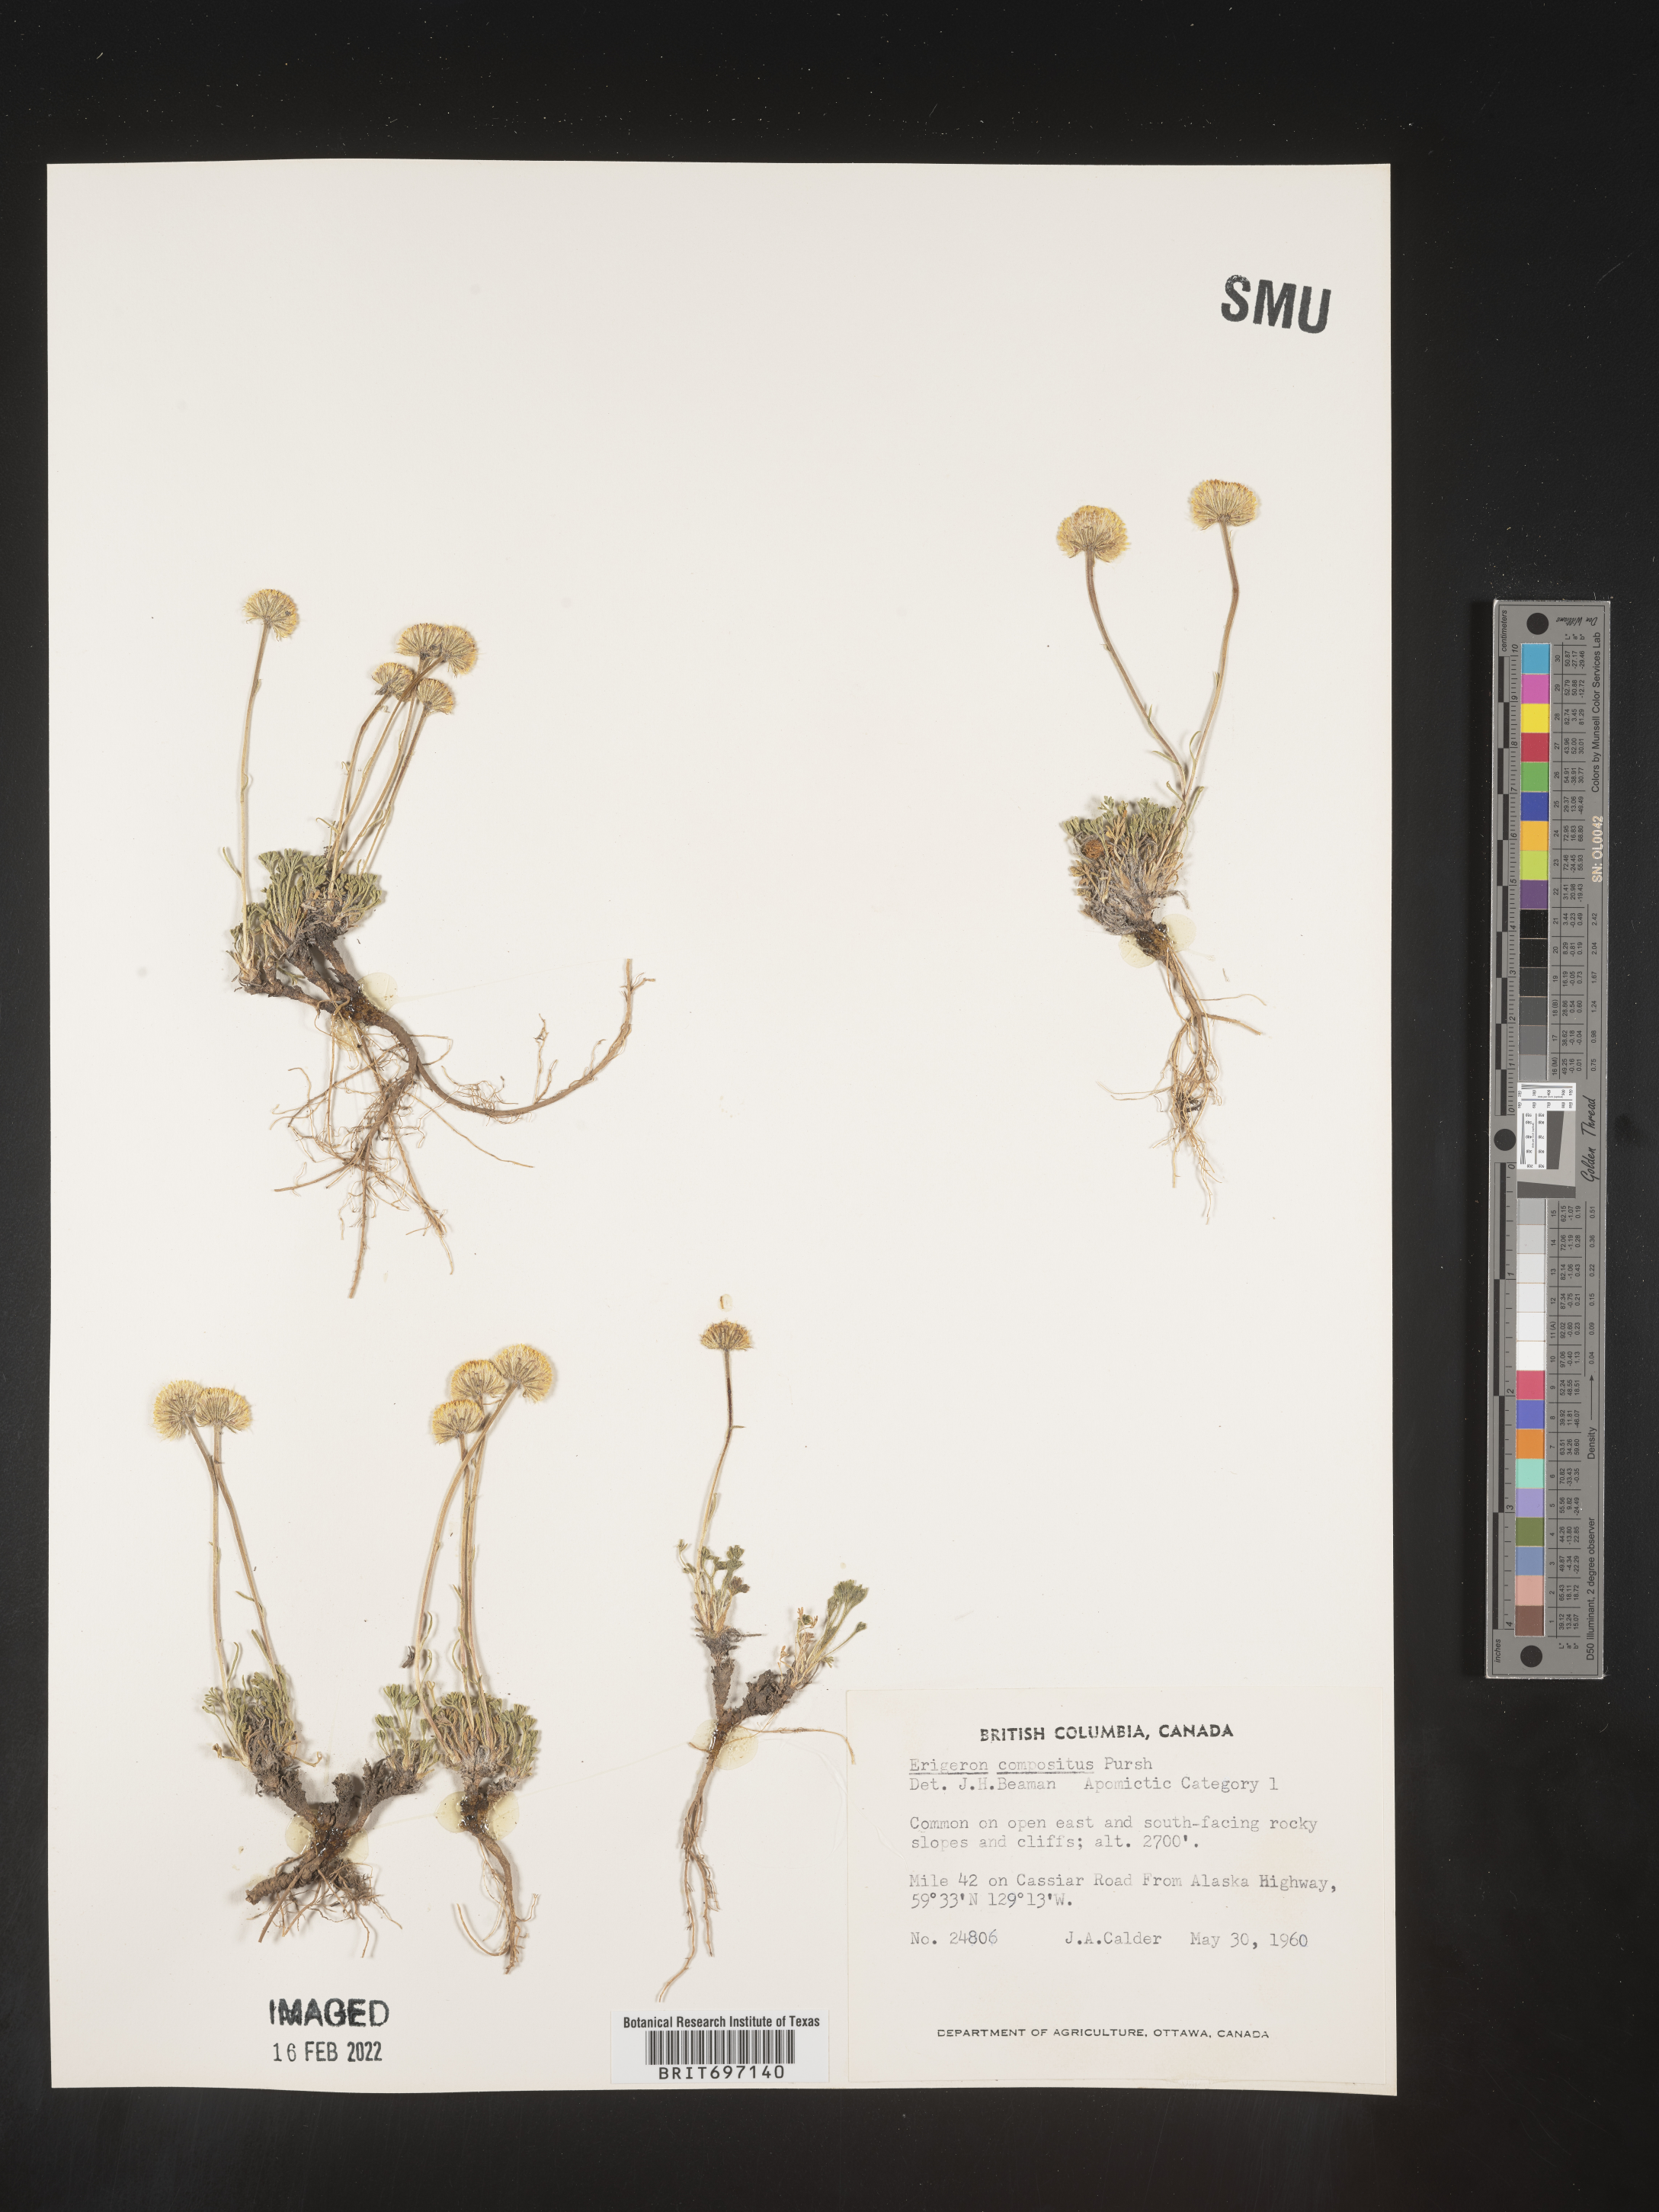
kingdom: Plantae
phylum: Tracheophyta
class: Magnoliopsida
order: Asterales
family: Asteraceae
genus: Erigeron
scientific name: Erigeron compositus
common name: Dwarf mountain fleabane
